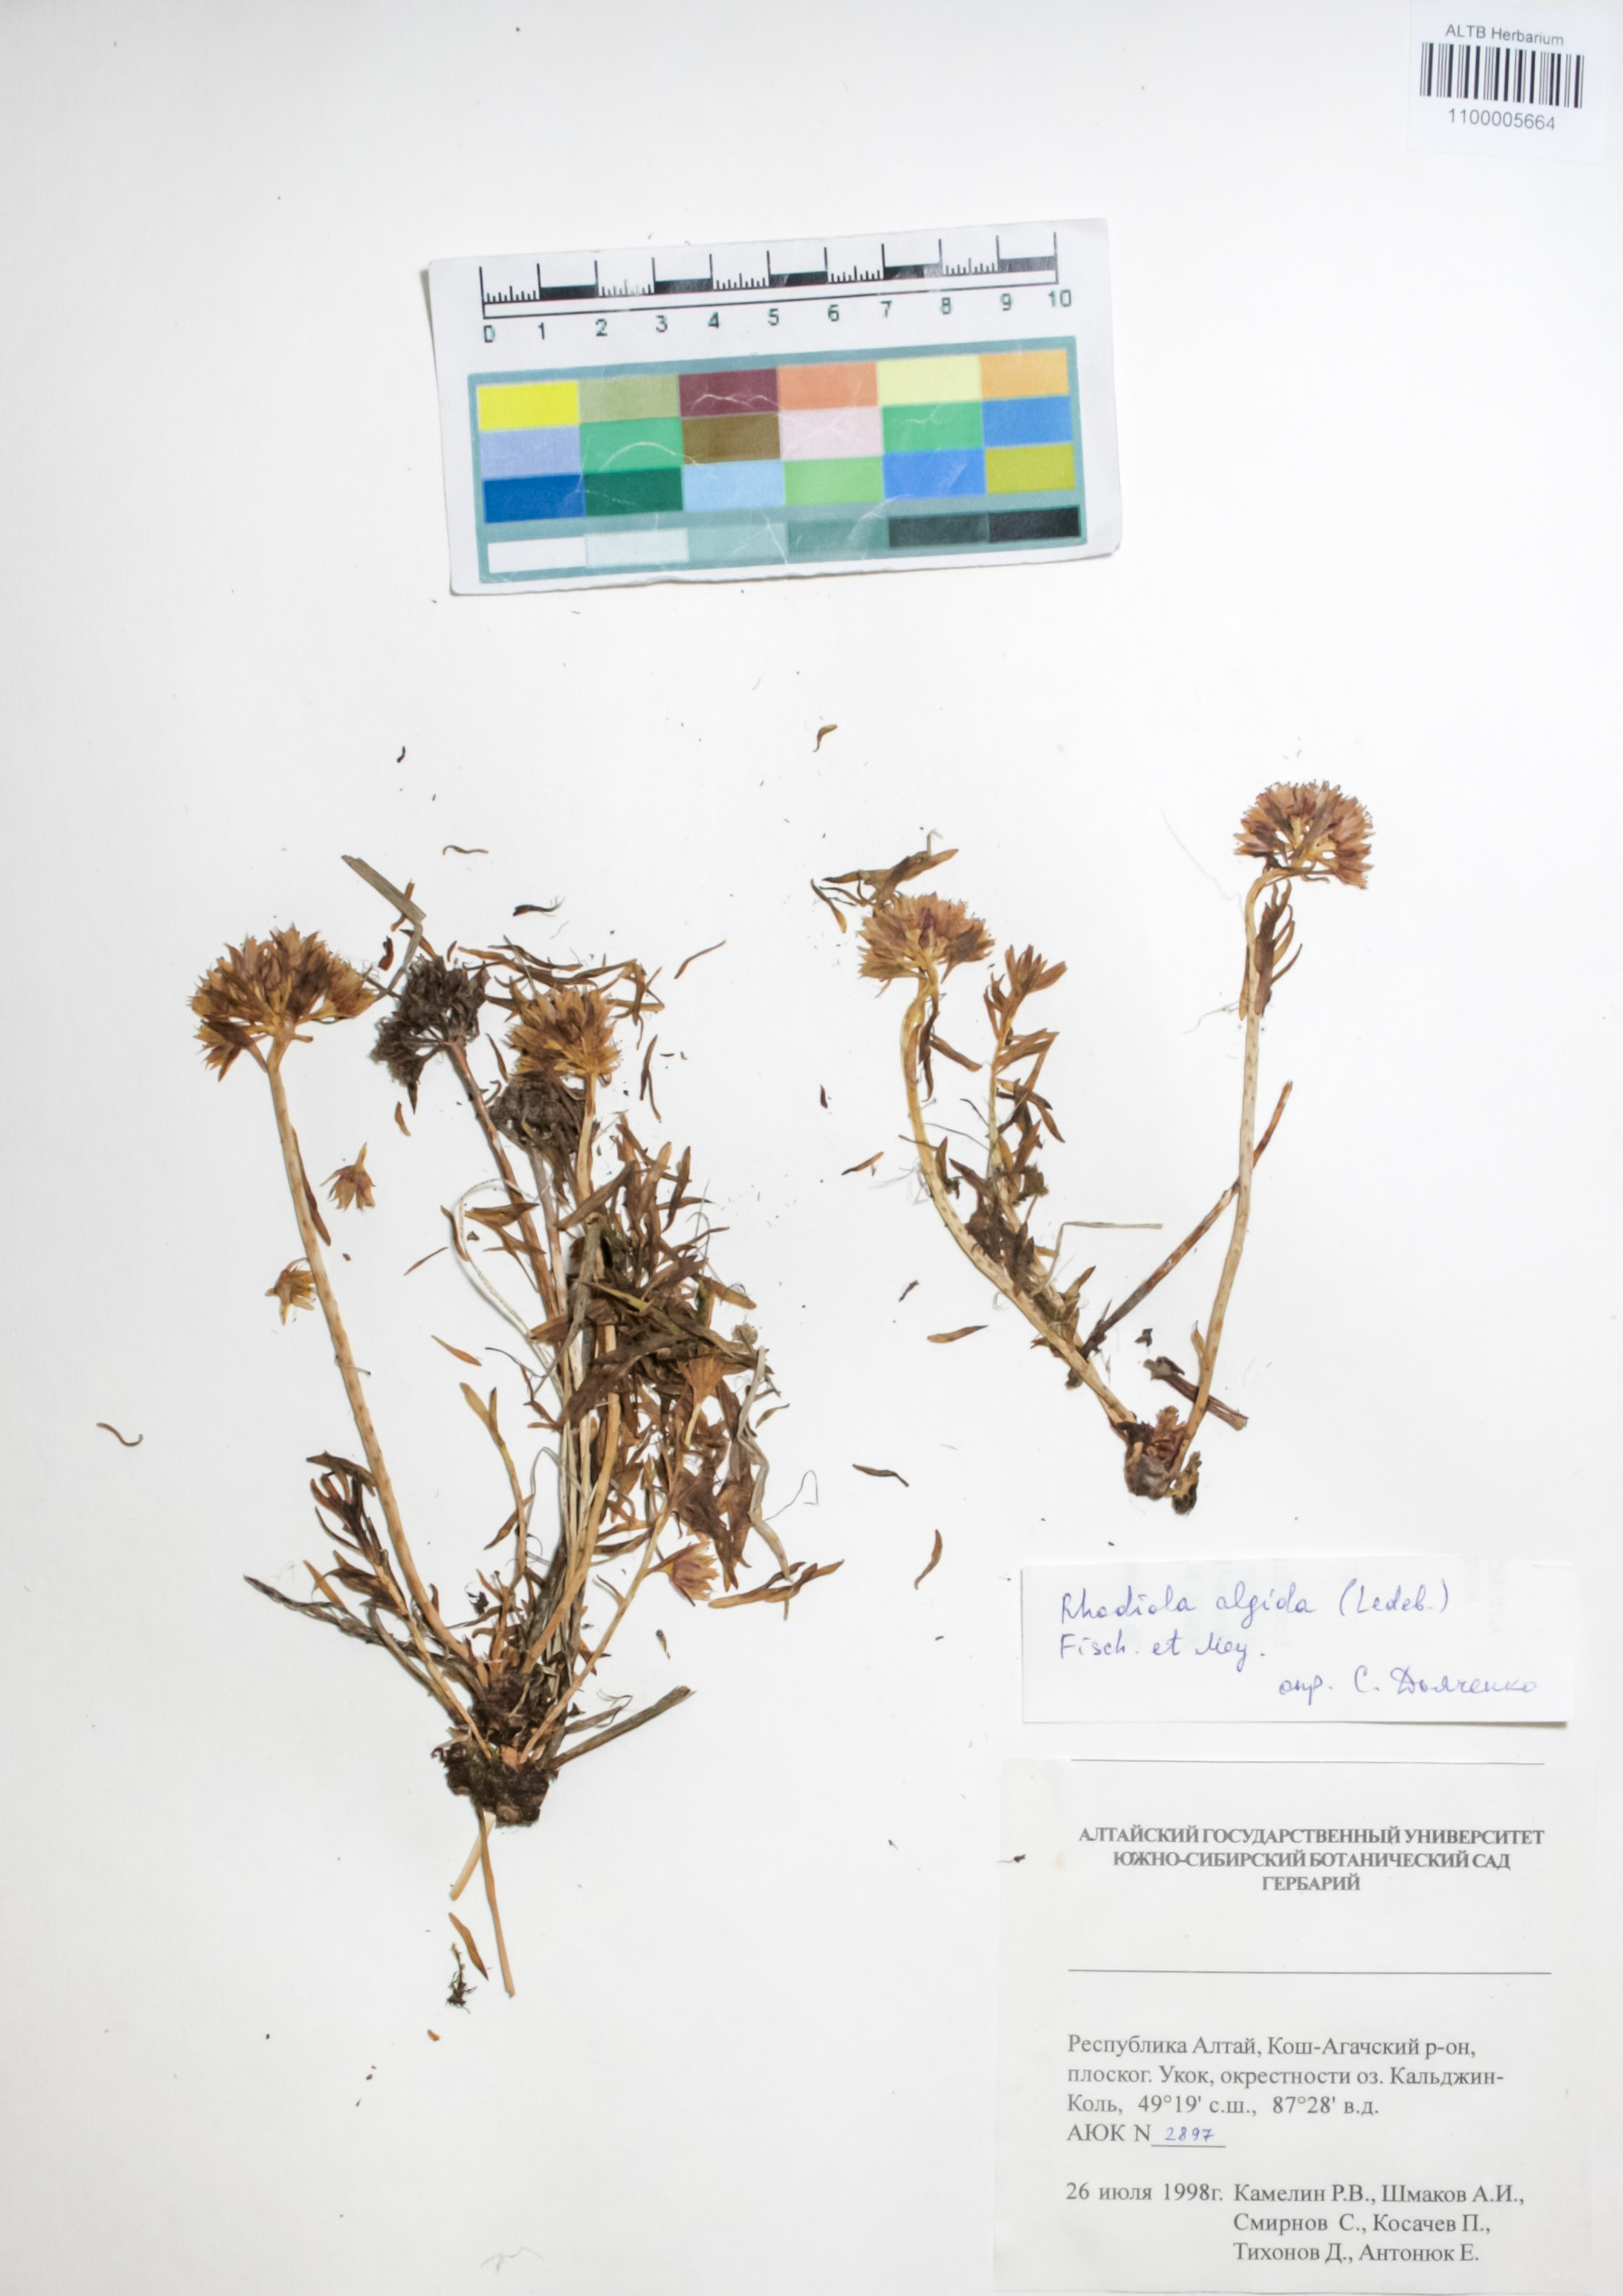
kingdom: Plantae
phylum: Tracheophyta
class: Magnoliopsida
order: Saxifragales
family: Crassulaceae
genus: Rhodiola
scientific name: Rhodiola algida
